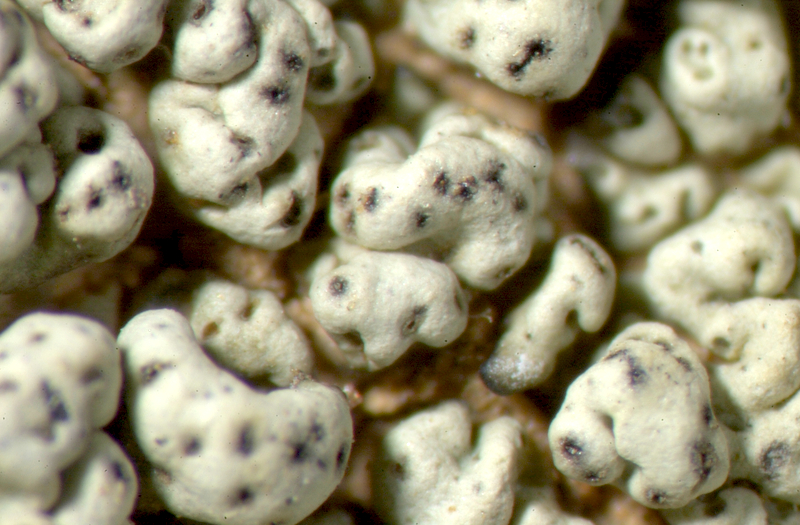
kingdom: Fungi
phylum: Ascomycota
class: Lecanoromycetes
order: Lecideales
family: Lecideaceae
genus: Lecidea
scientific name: Lecidea
